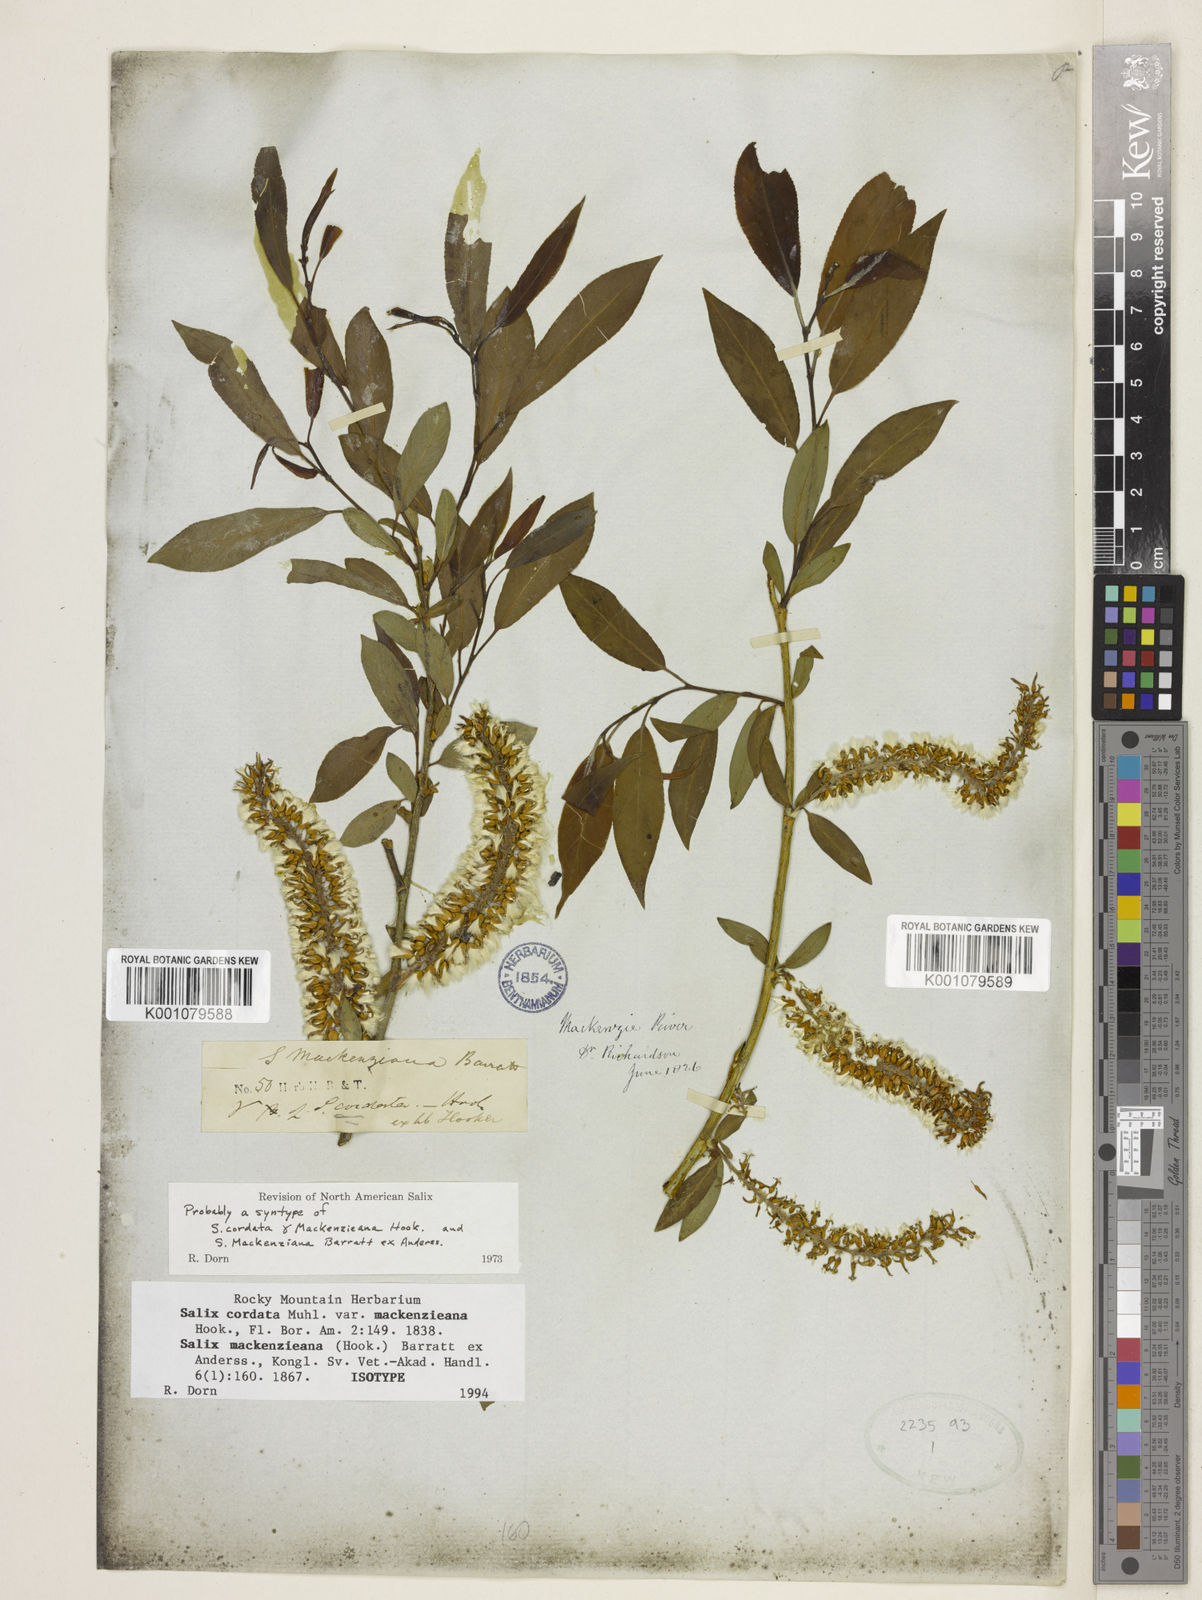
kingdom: Plantae
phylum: Tracheophyta
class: Magnoliopsida
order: Malpighiales
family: Salicaceae
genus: Salix
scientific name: Salix prolixa
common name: Mackenzie's willow
